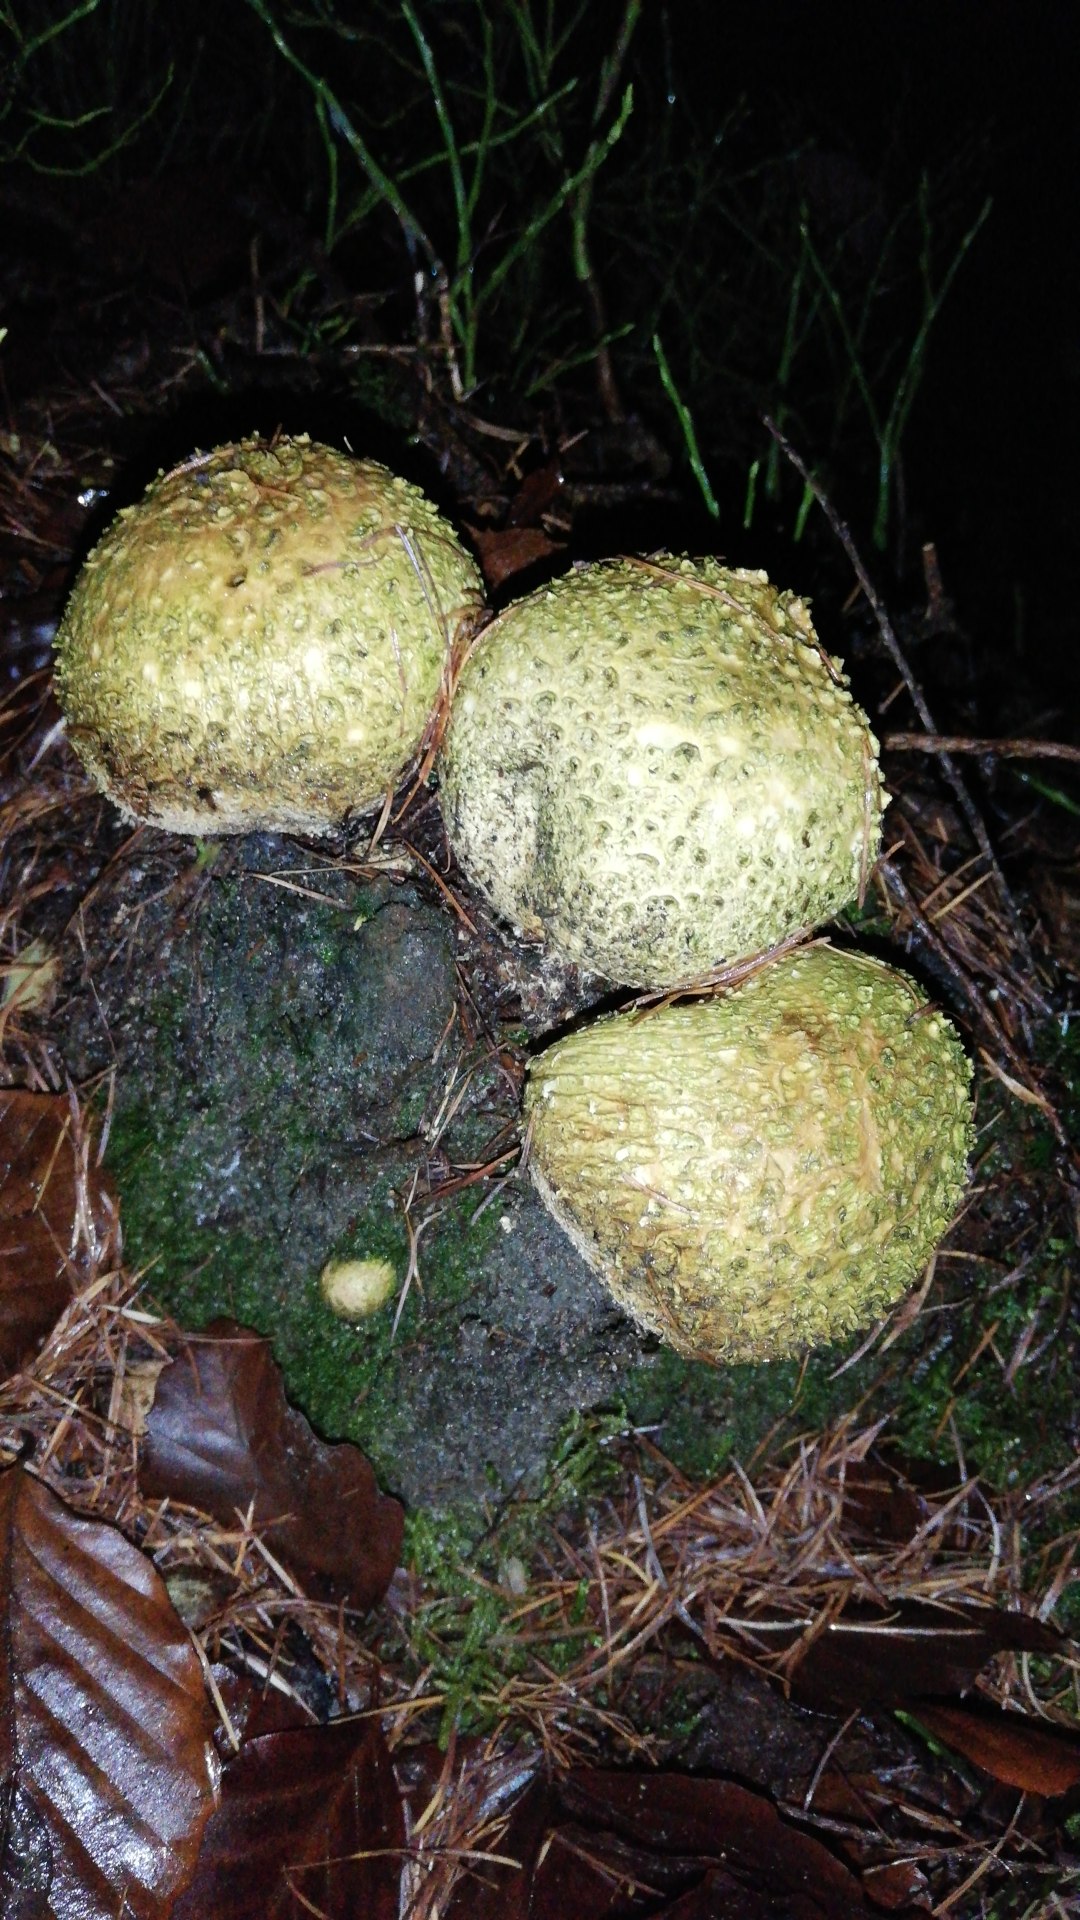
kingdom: Fungi
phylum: Basidiomycota
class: Agaricomycetes
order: Boletales
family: Sclerodermataceae
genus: Scleroderma
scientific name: Scleroderma citrinum
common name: almindelig bruskbold
